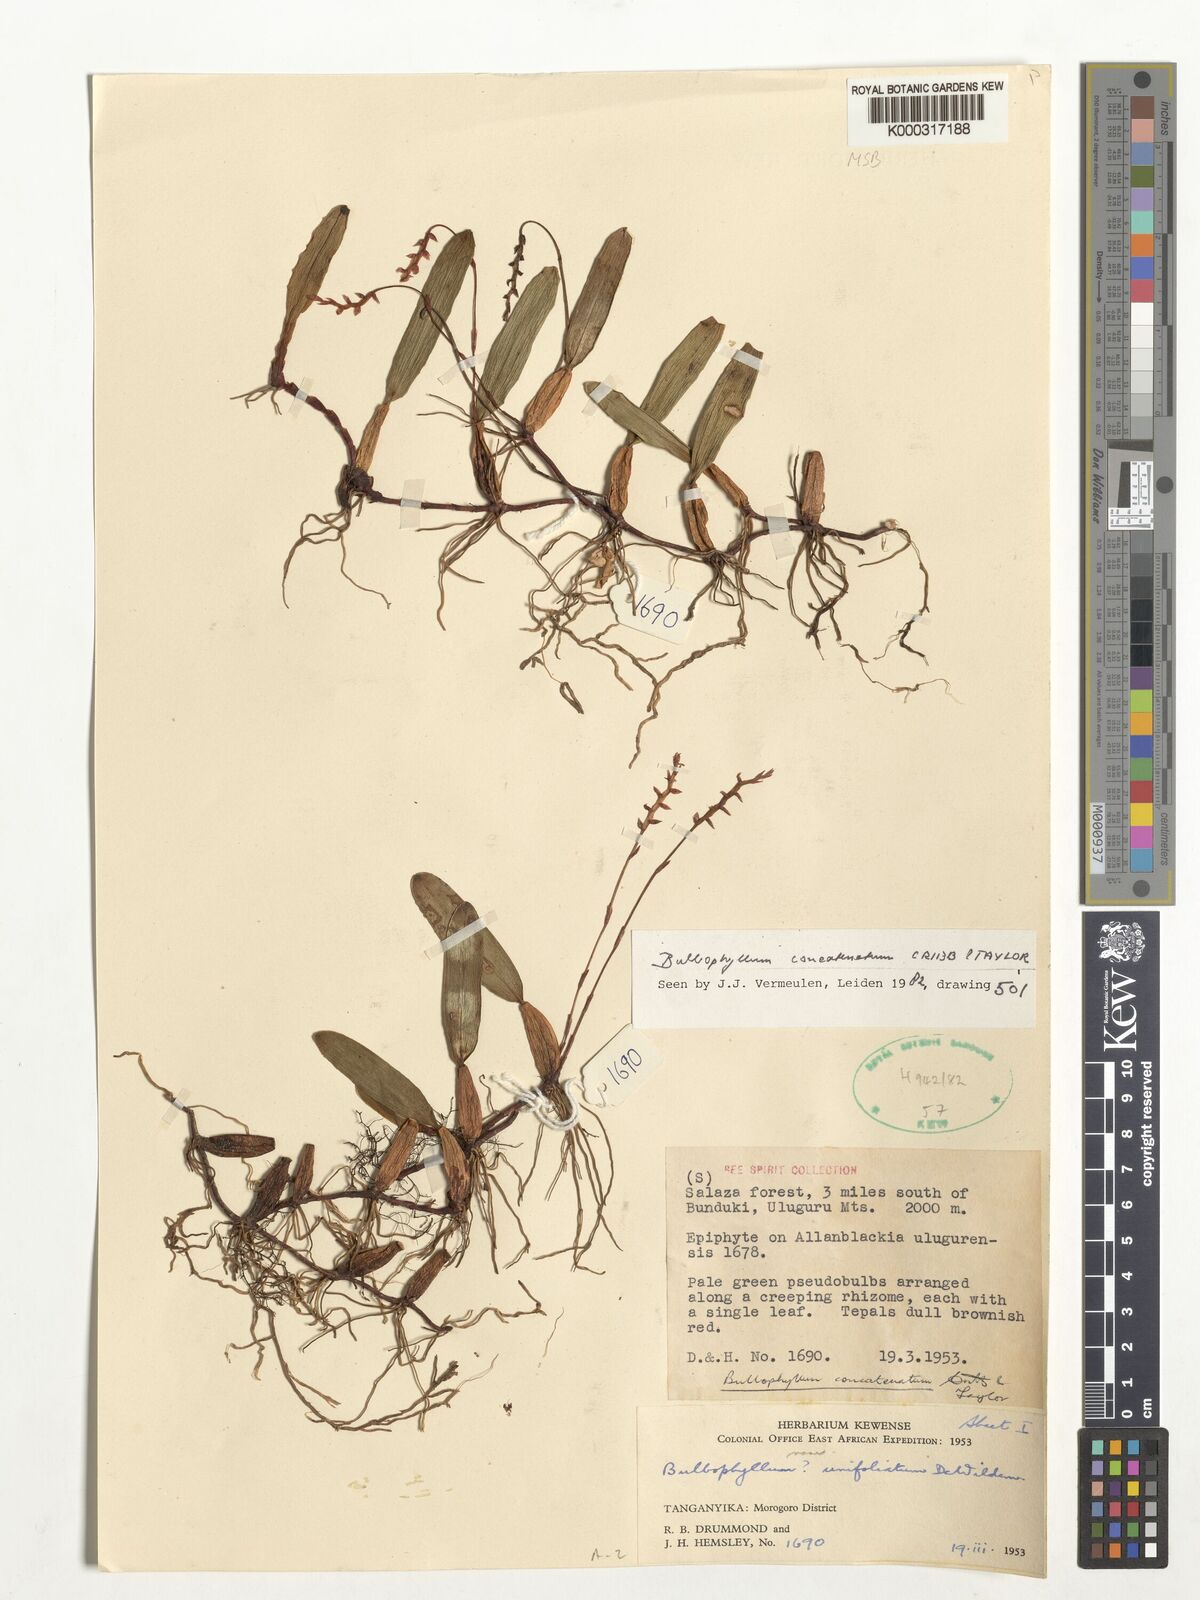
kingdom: Plantae
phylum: Tracheophyta
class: Liliopsida
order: Asparagales
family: Orchidaceae
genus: Bulbophyllum
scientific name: Bulbophyllum concatenatum
